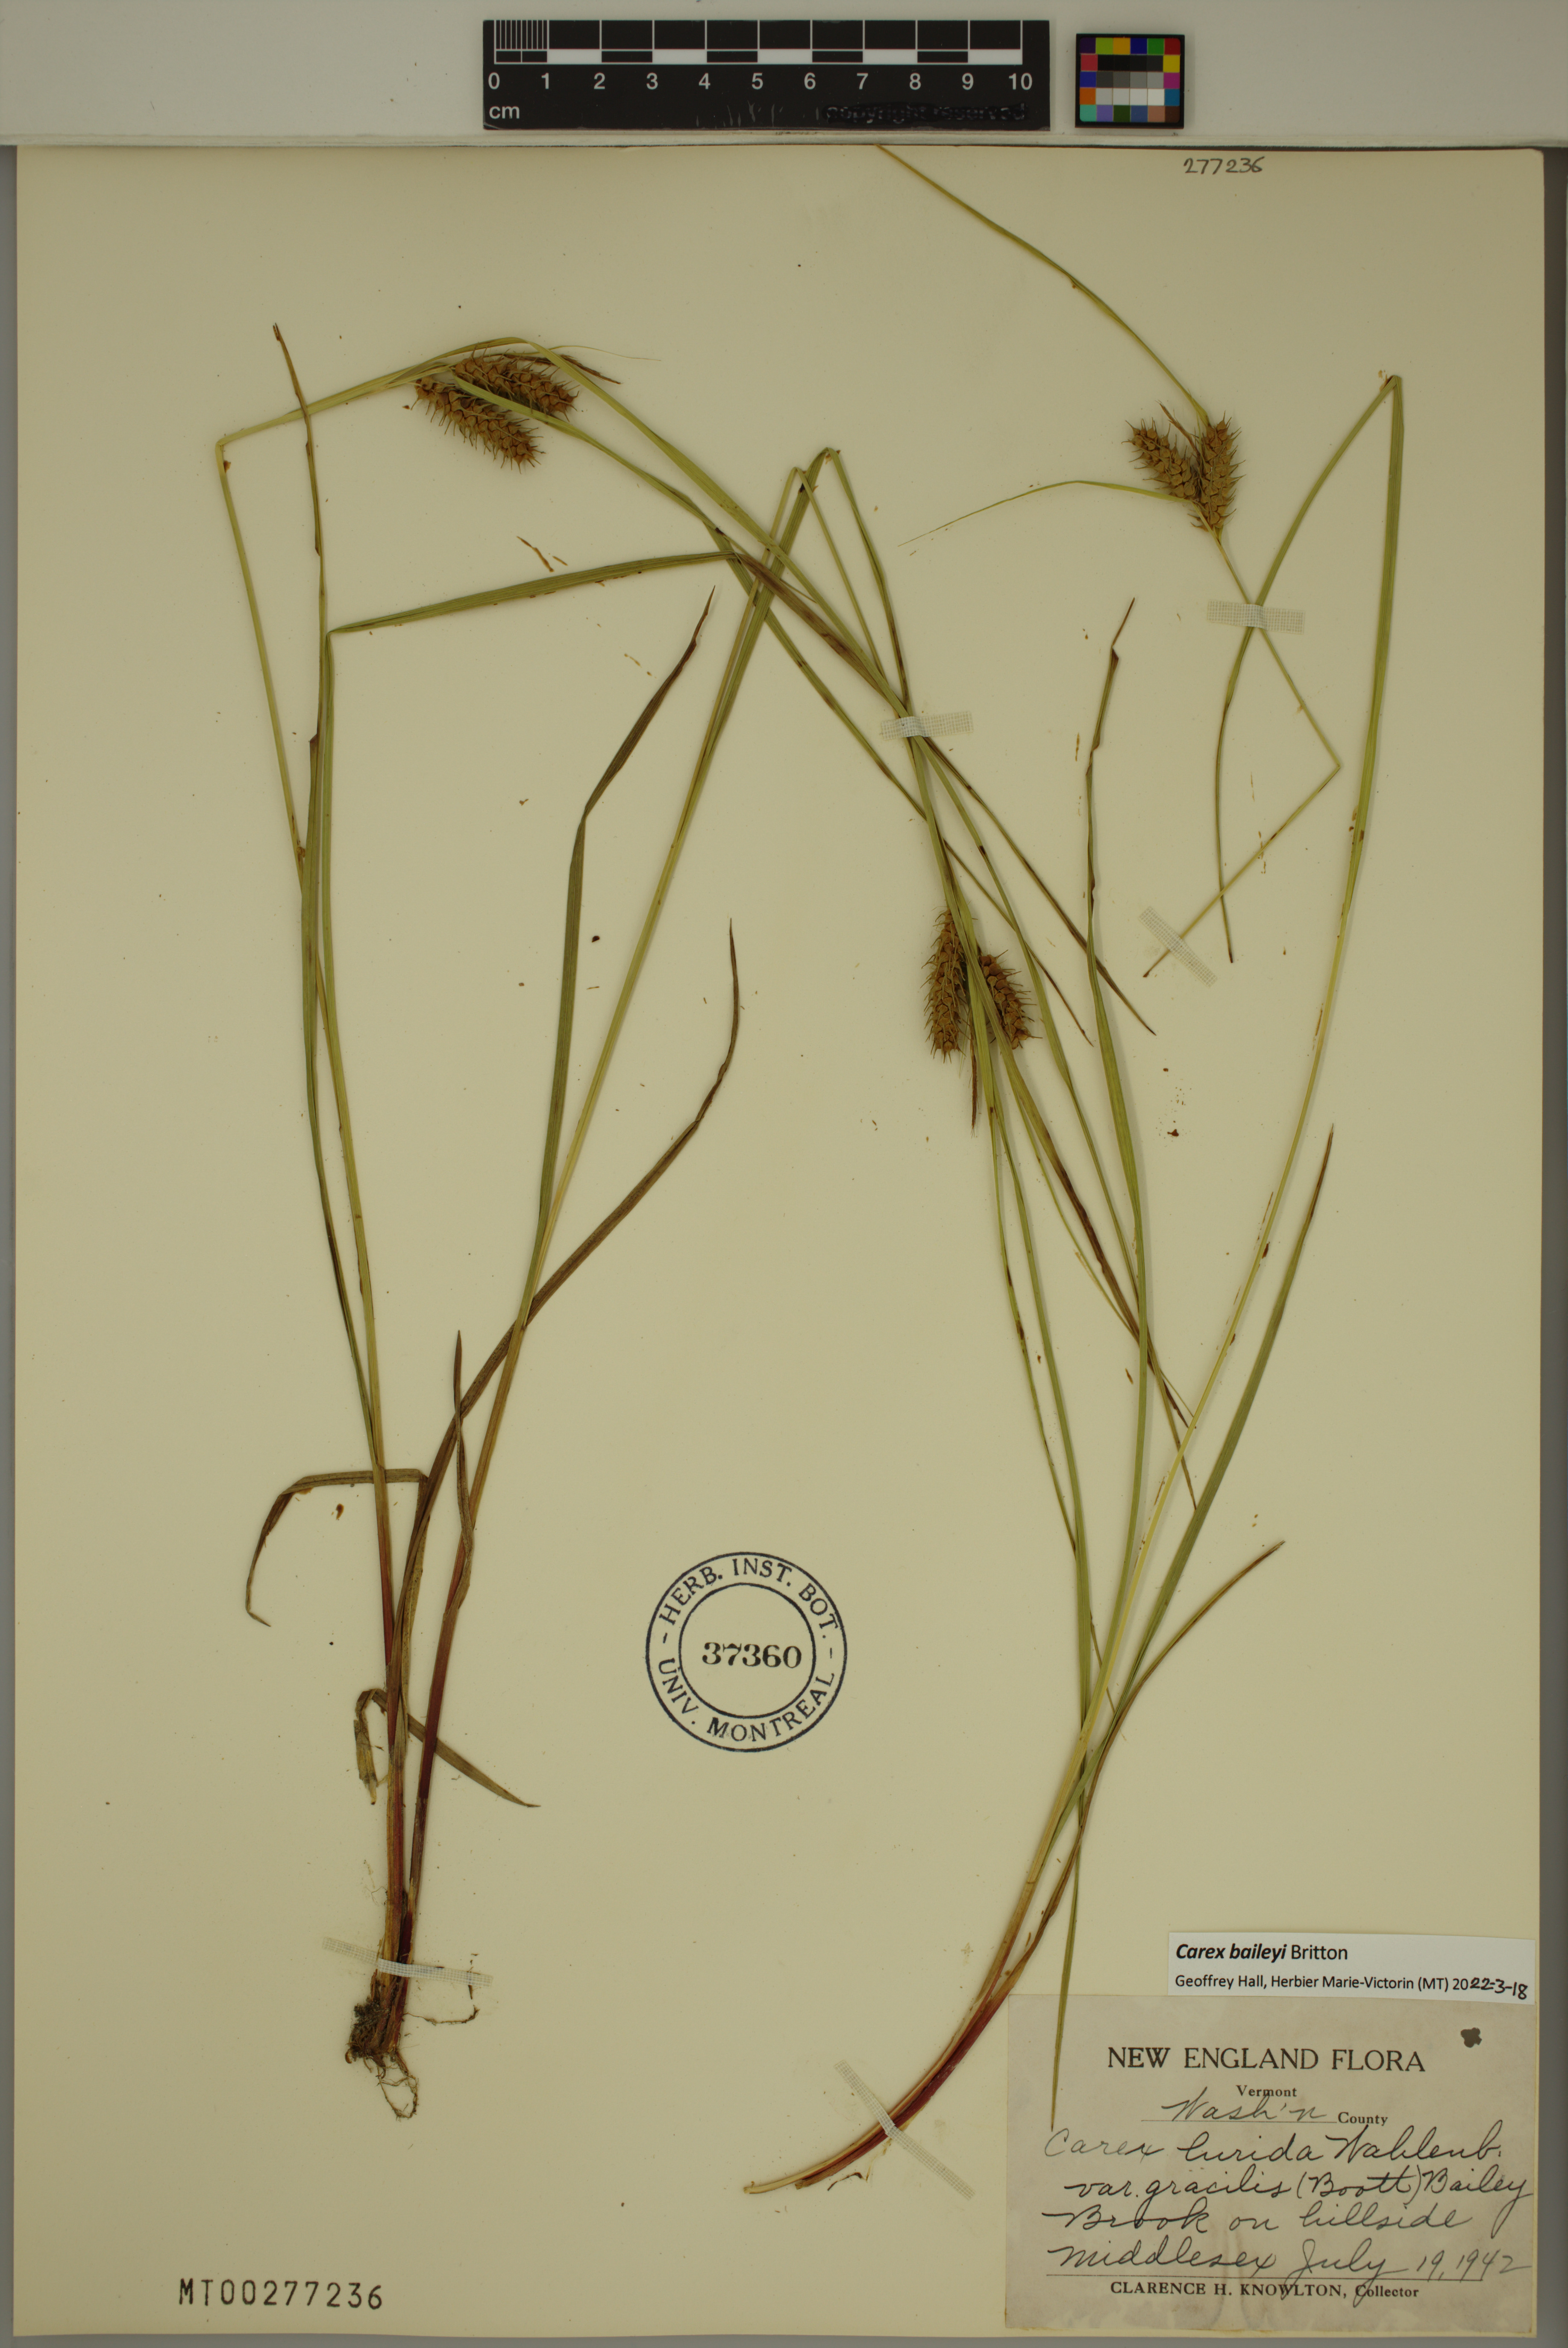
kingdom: Plantae
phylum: Tracheophyta
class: Liliopsida
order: Poales
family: Cyperaceae
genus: Carex
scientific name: Carex baileyi
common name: Bailey's sedge
